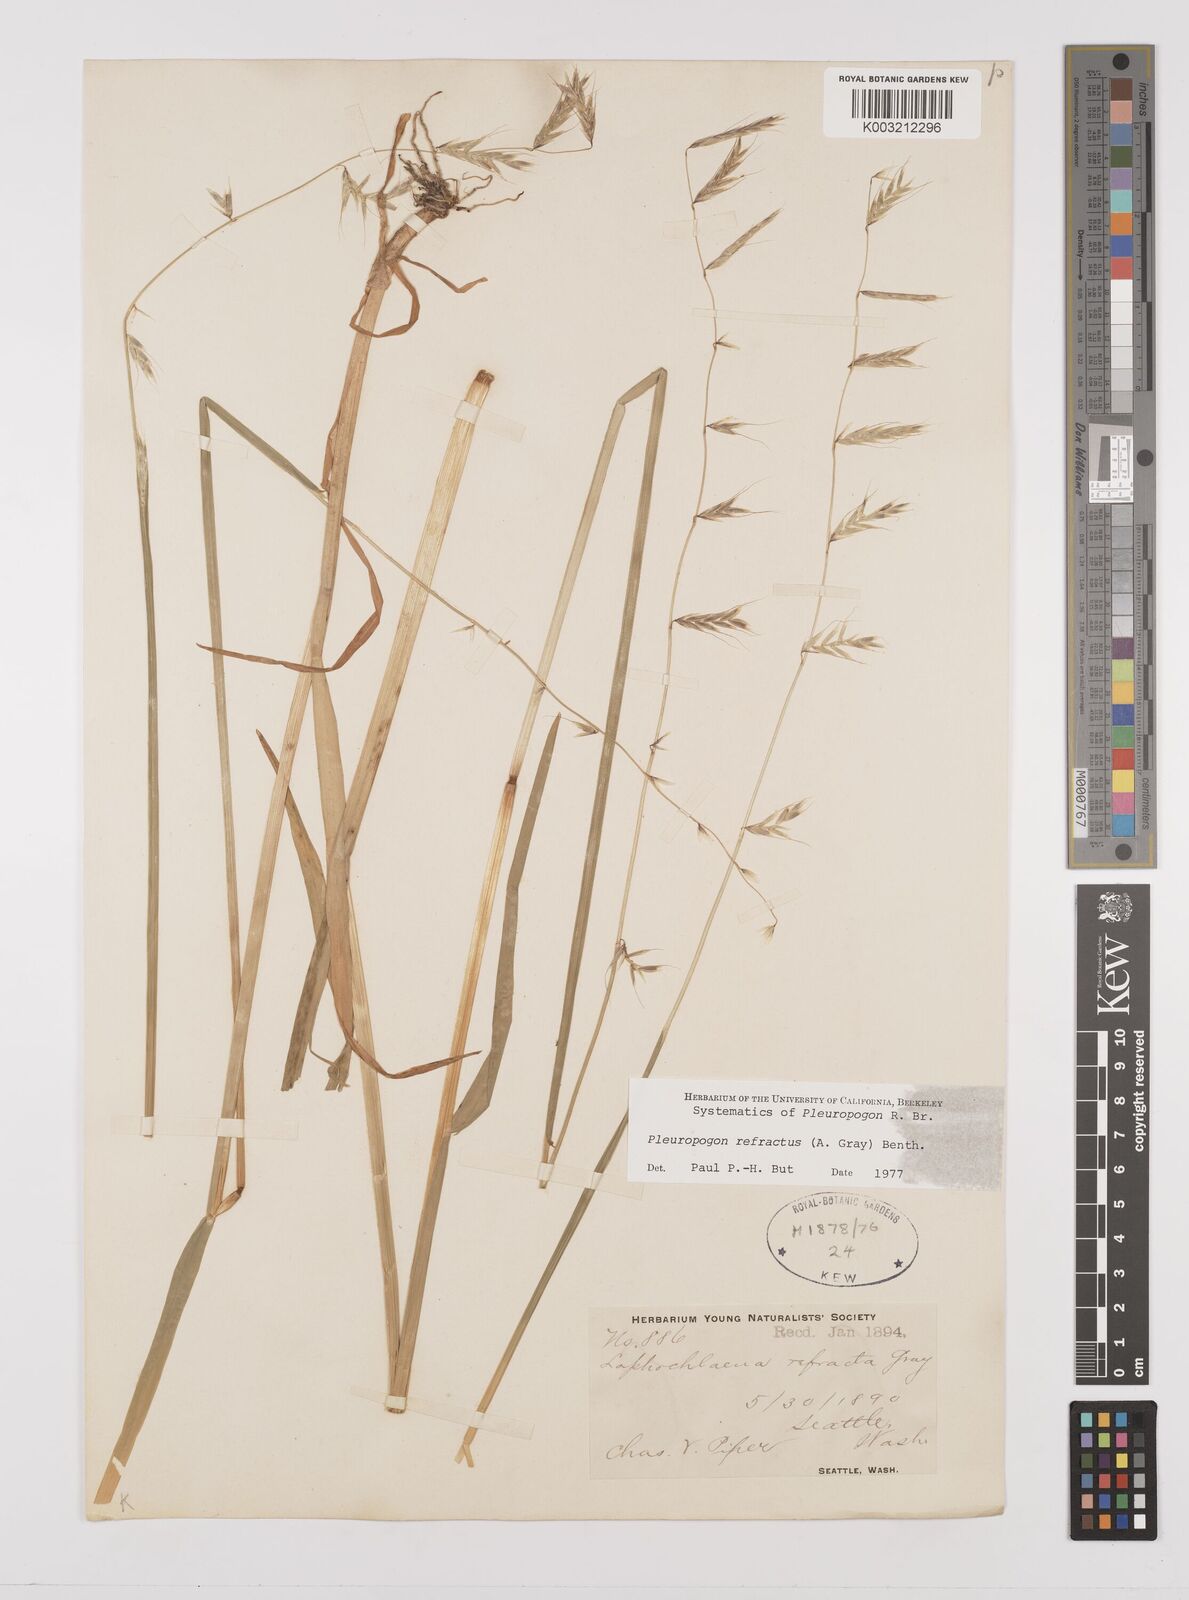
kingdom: Plantae
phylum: Tracheophyta
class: Liliopsida
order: Poales
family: Poaceae
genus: Pleuropogon
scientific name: Pleuropogon refractus
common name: Nodding false semaphoregrass
